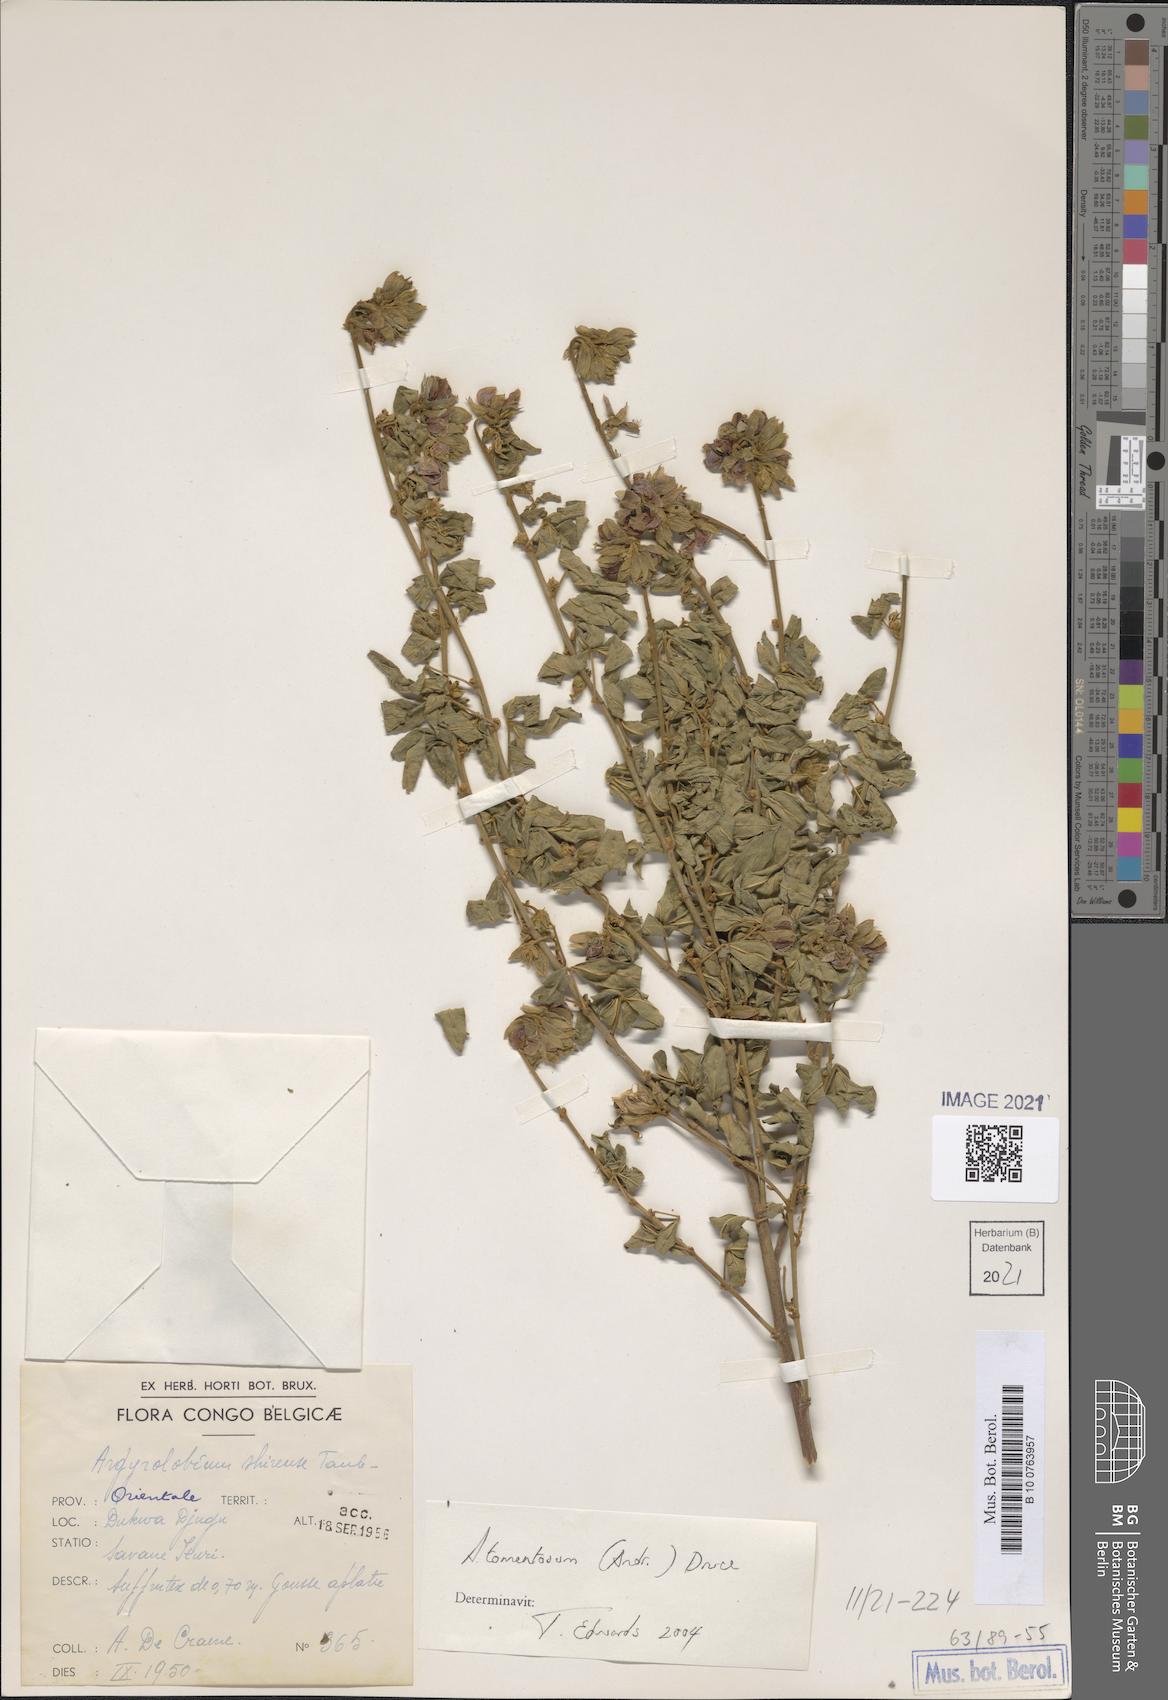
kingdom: Plantae
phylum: Tracheophyta
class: Magnoliopsida
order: Fabales
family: Fabaceae
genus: Argyrolobium
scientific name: Argyrolobium tomentosum
